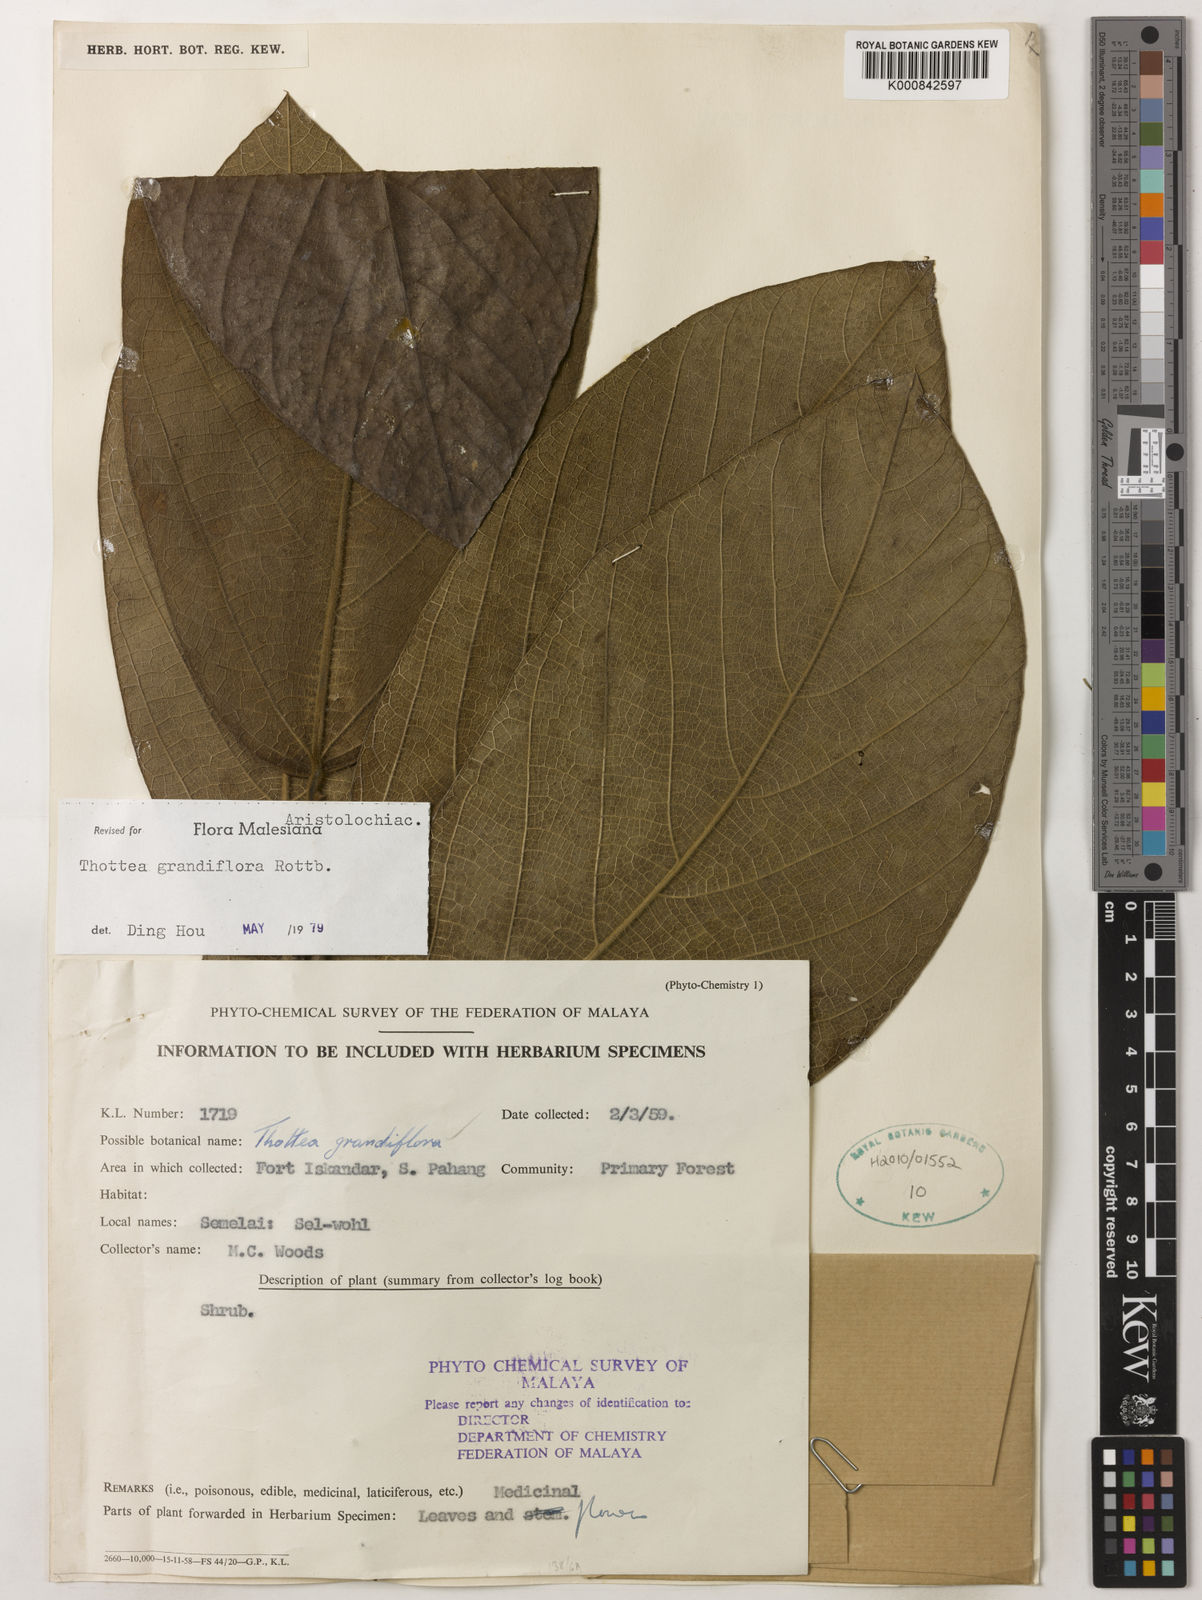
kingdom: Plantae
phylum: Tracheophyta
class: Magnoliopsida
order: Piperales
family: Aristolochiaceae
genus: Thottea
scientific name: Thottea grandiflora
